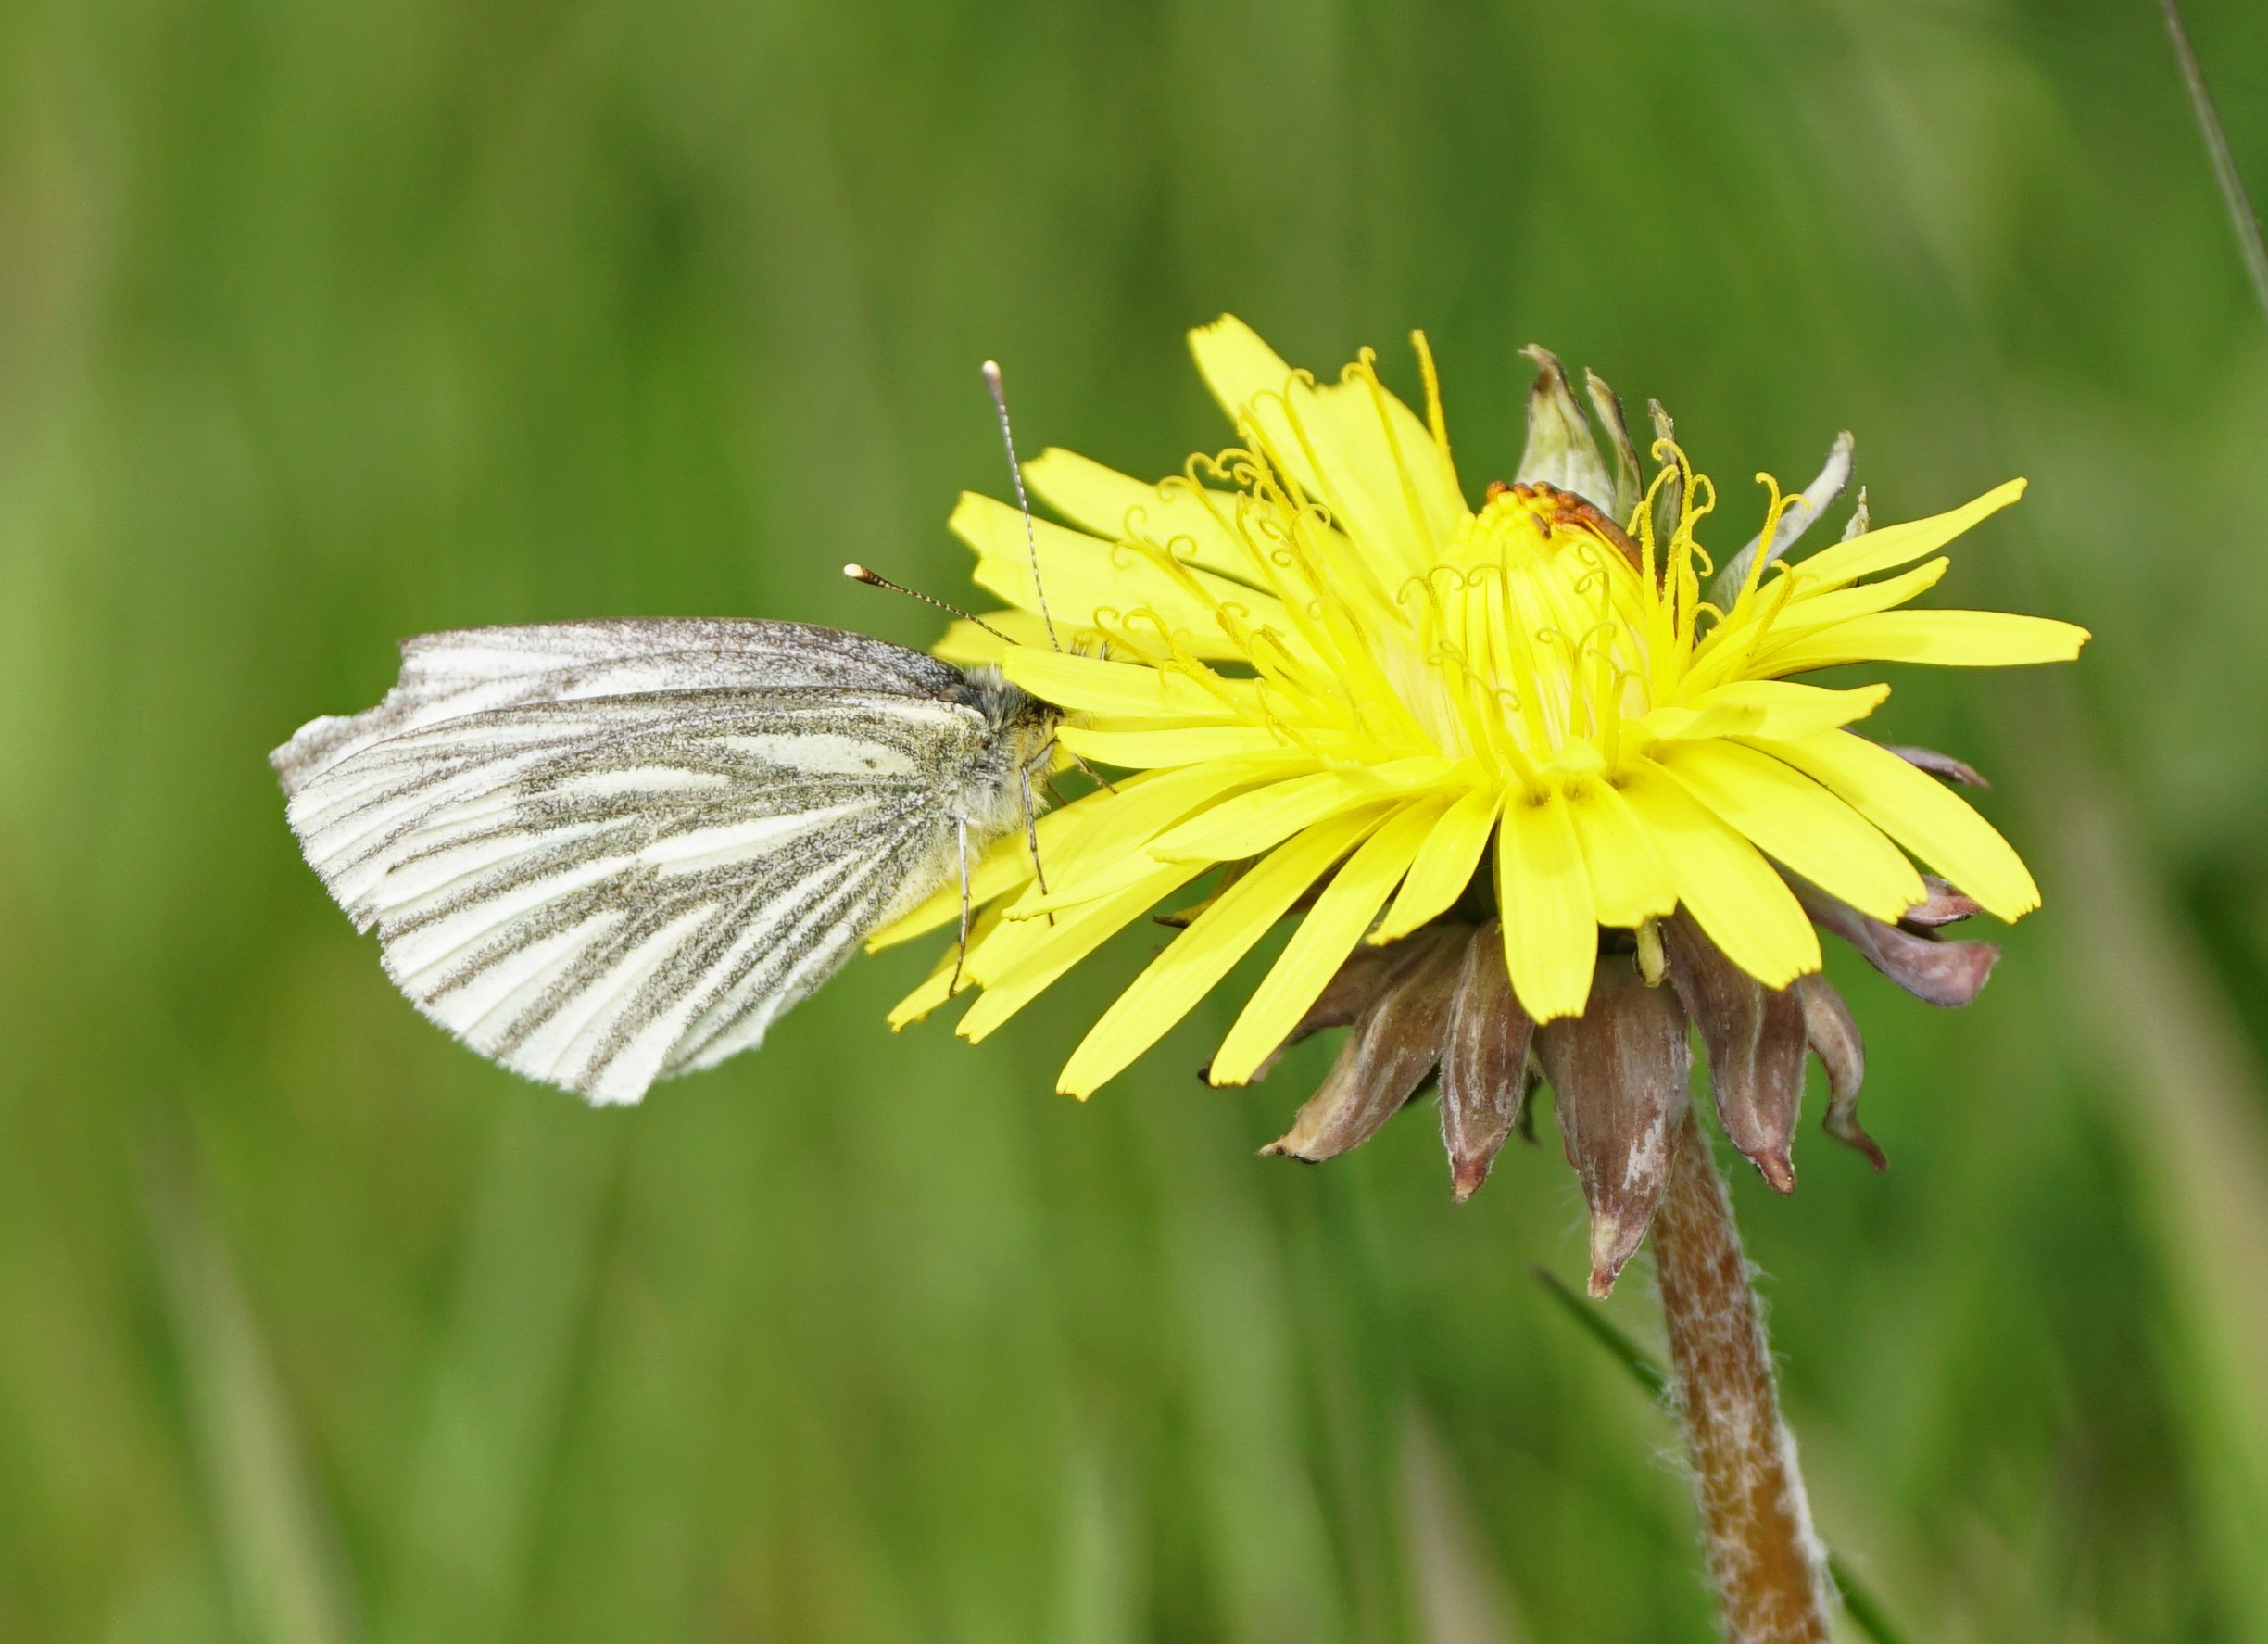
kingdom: Animalia
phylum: Arthropoda
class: Insecta
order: Lepidoptera
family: Pieridae
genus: Pieris
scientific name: Pieris napi
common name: Grønåret kålsommerfugl
